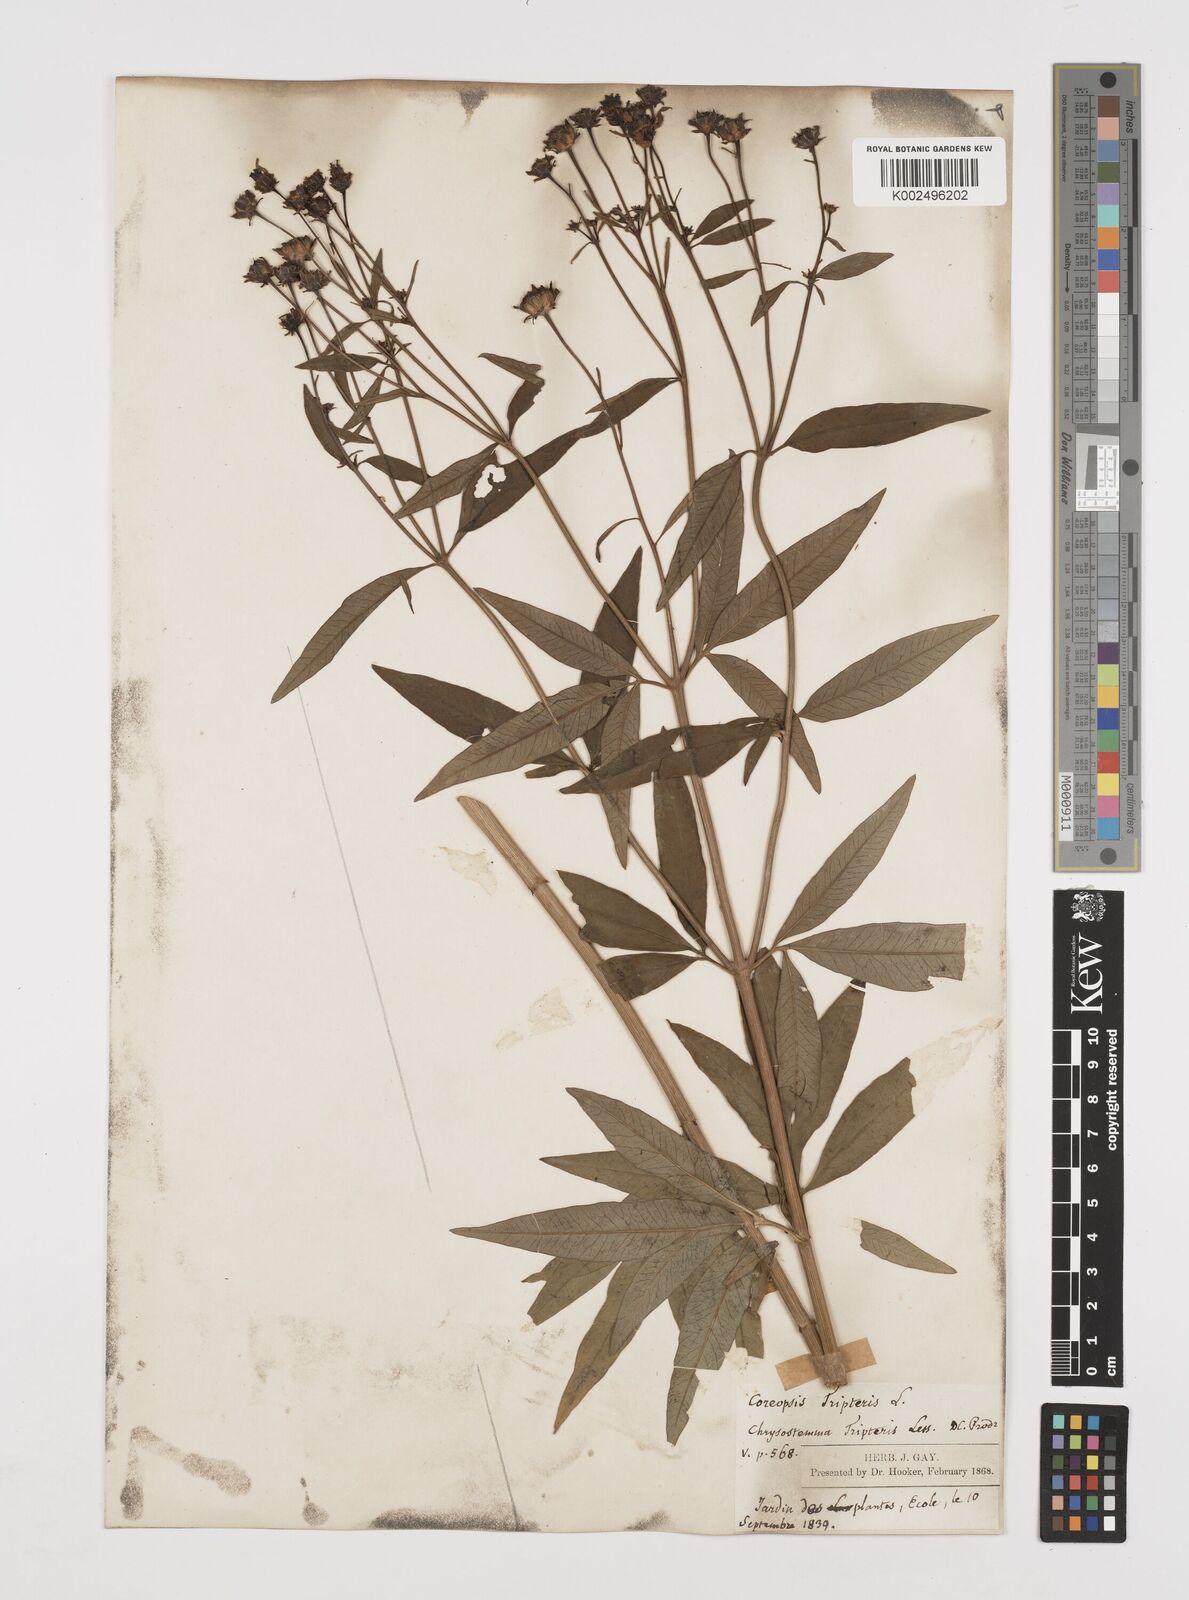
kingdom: Plantae
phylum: Tracheophyta
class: Magnoliopsida
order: Asterales
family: Asteraceae
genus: Coreopsis
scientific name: Coreopsis
